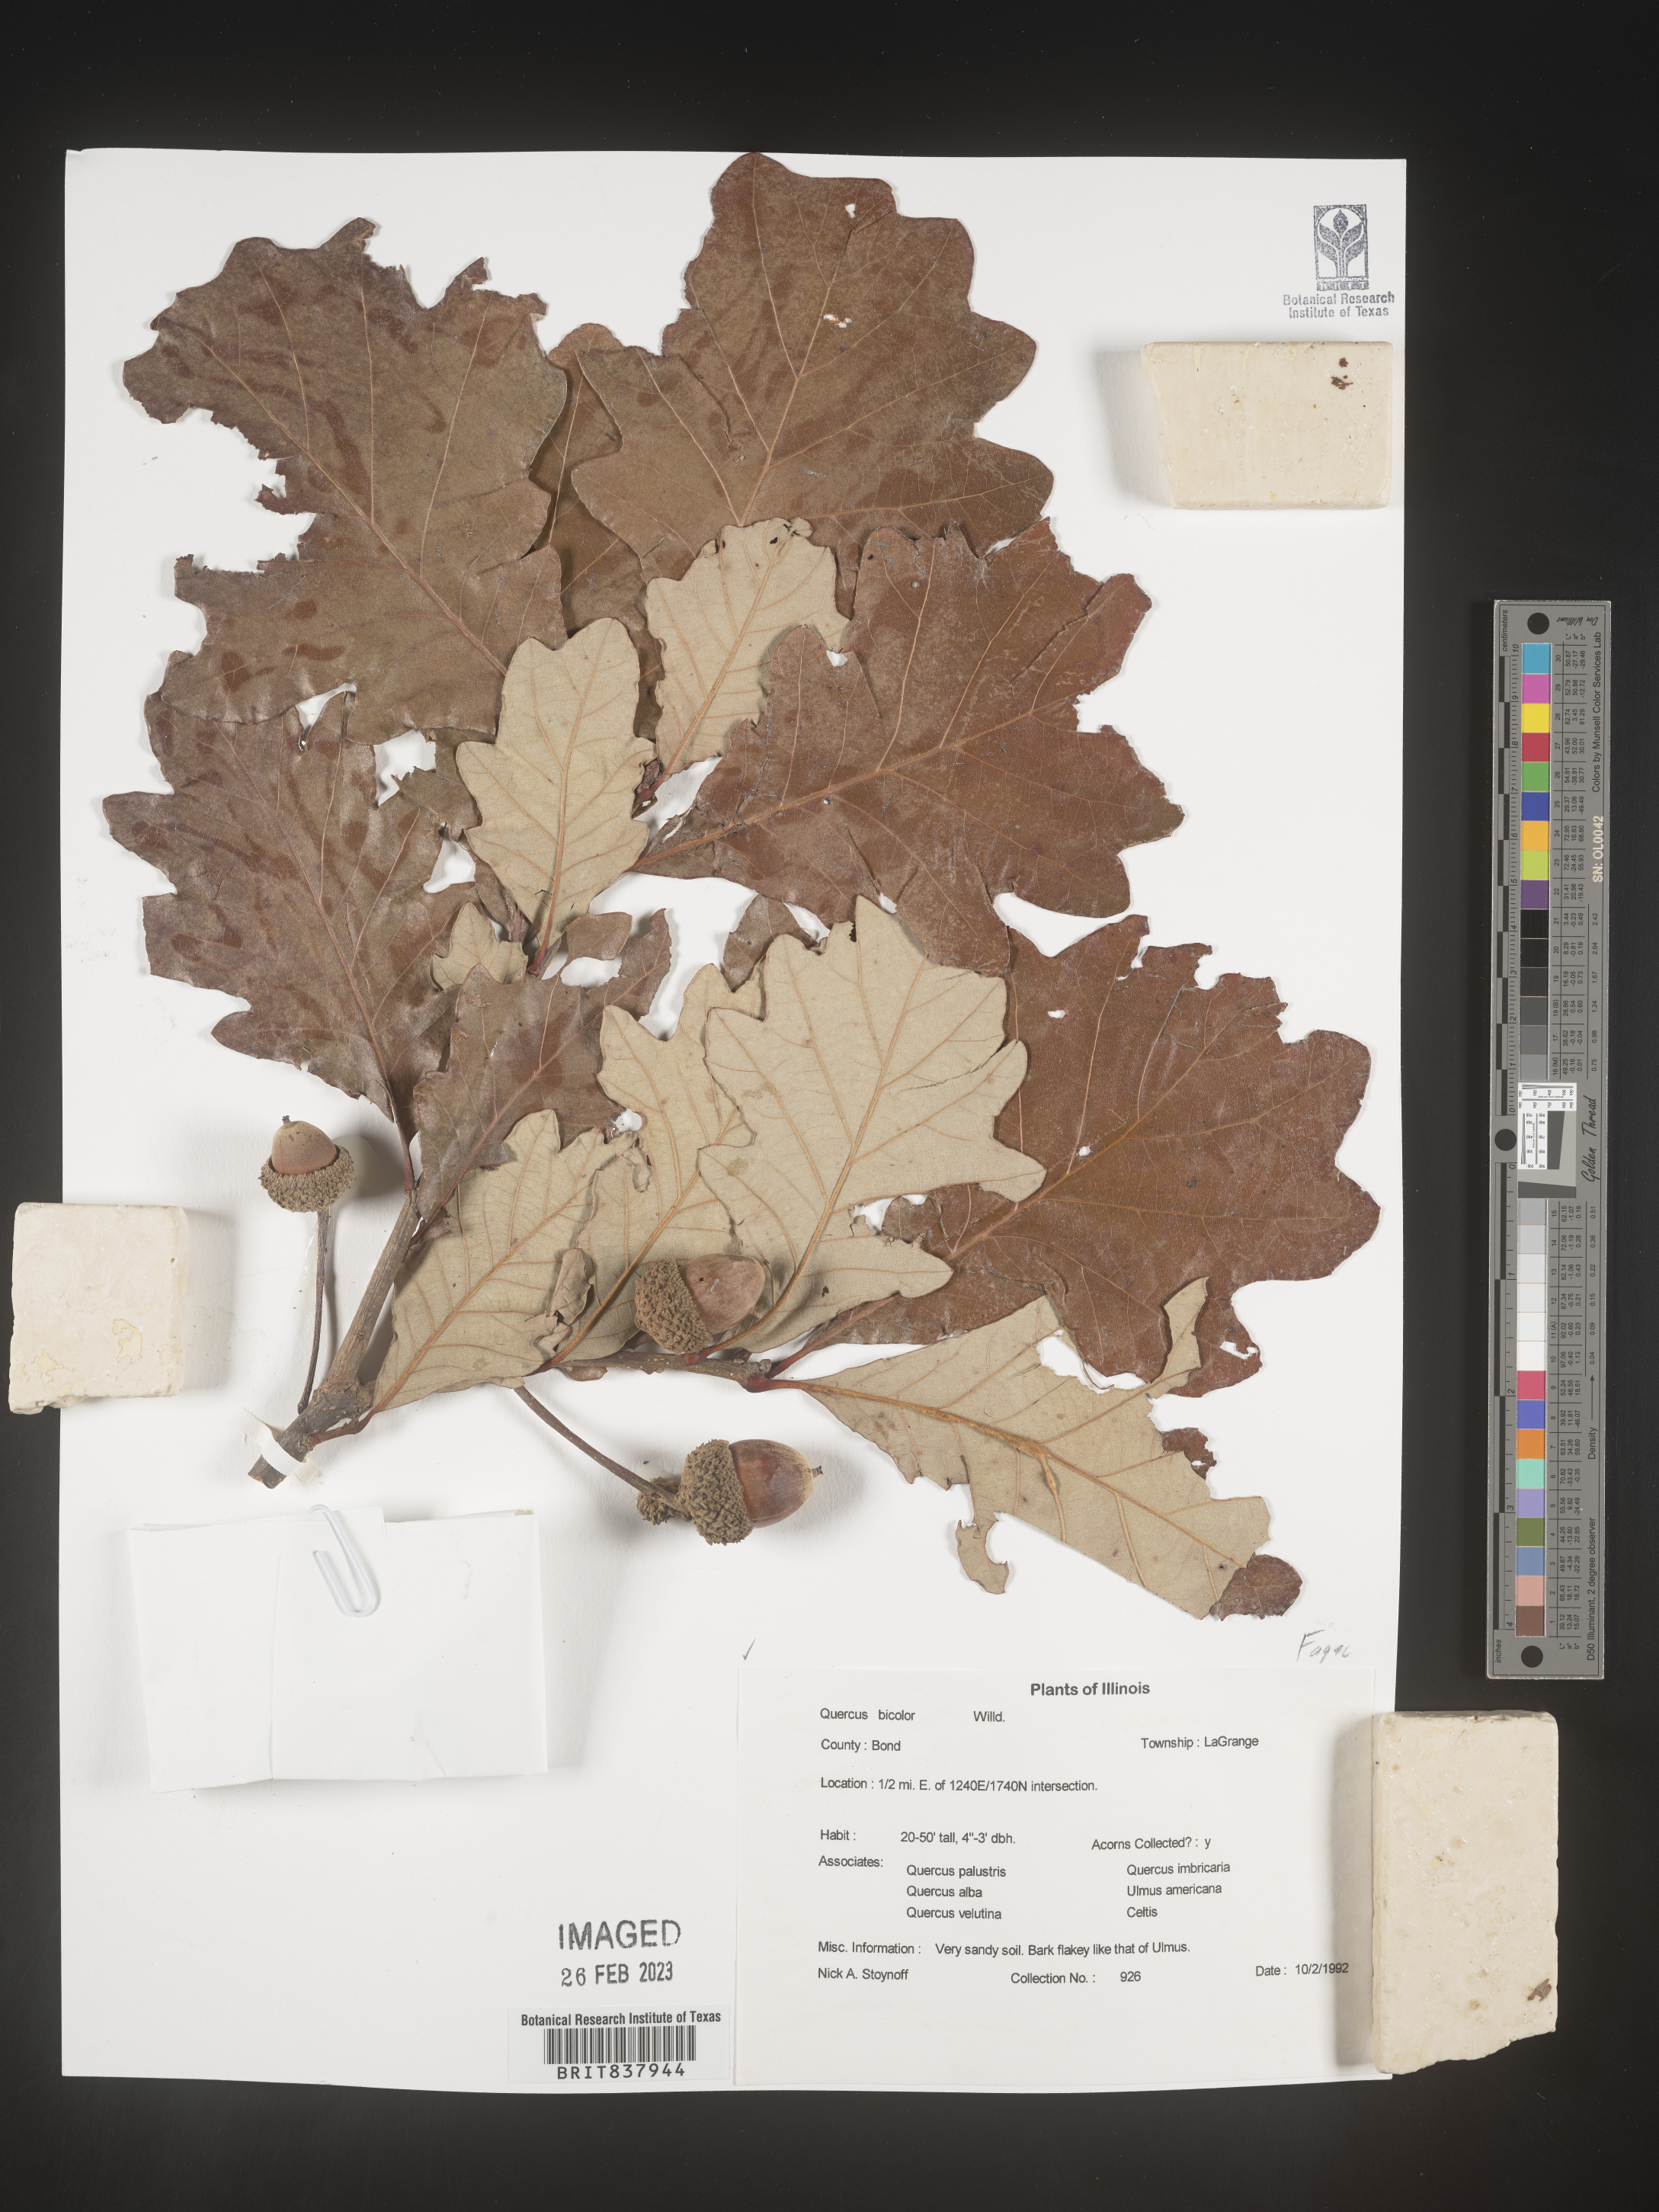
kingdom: Plantae
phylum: Tracheophyta
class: Magnoliopsida
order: Fagales
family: Fagaceae
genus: Quercus
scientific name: Quercus bicolor
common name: Swamp white oak
